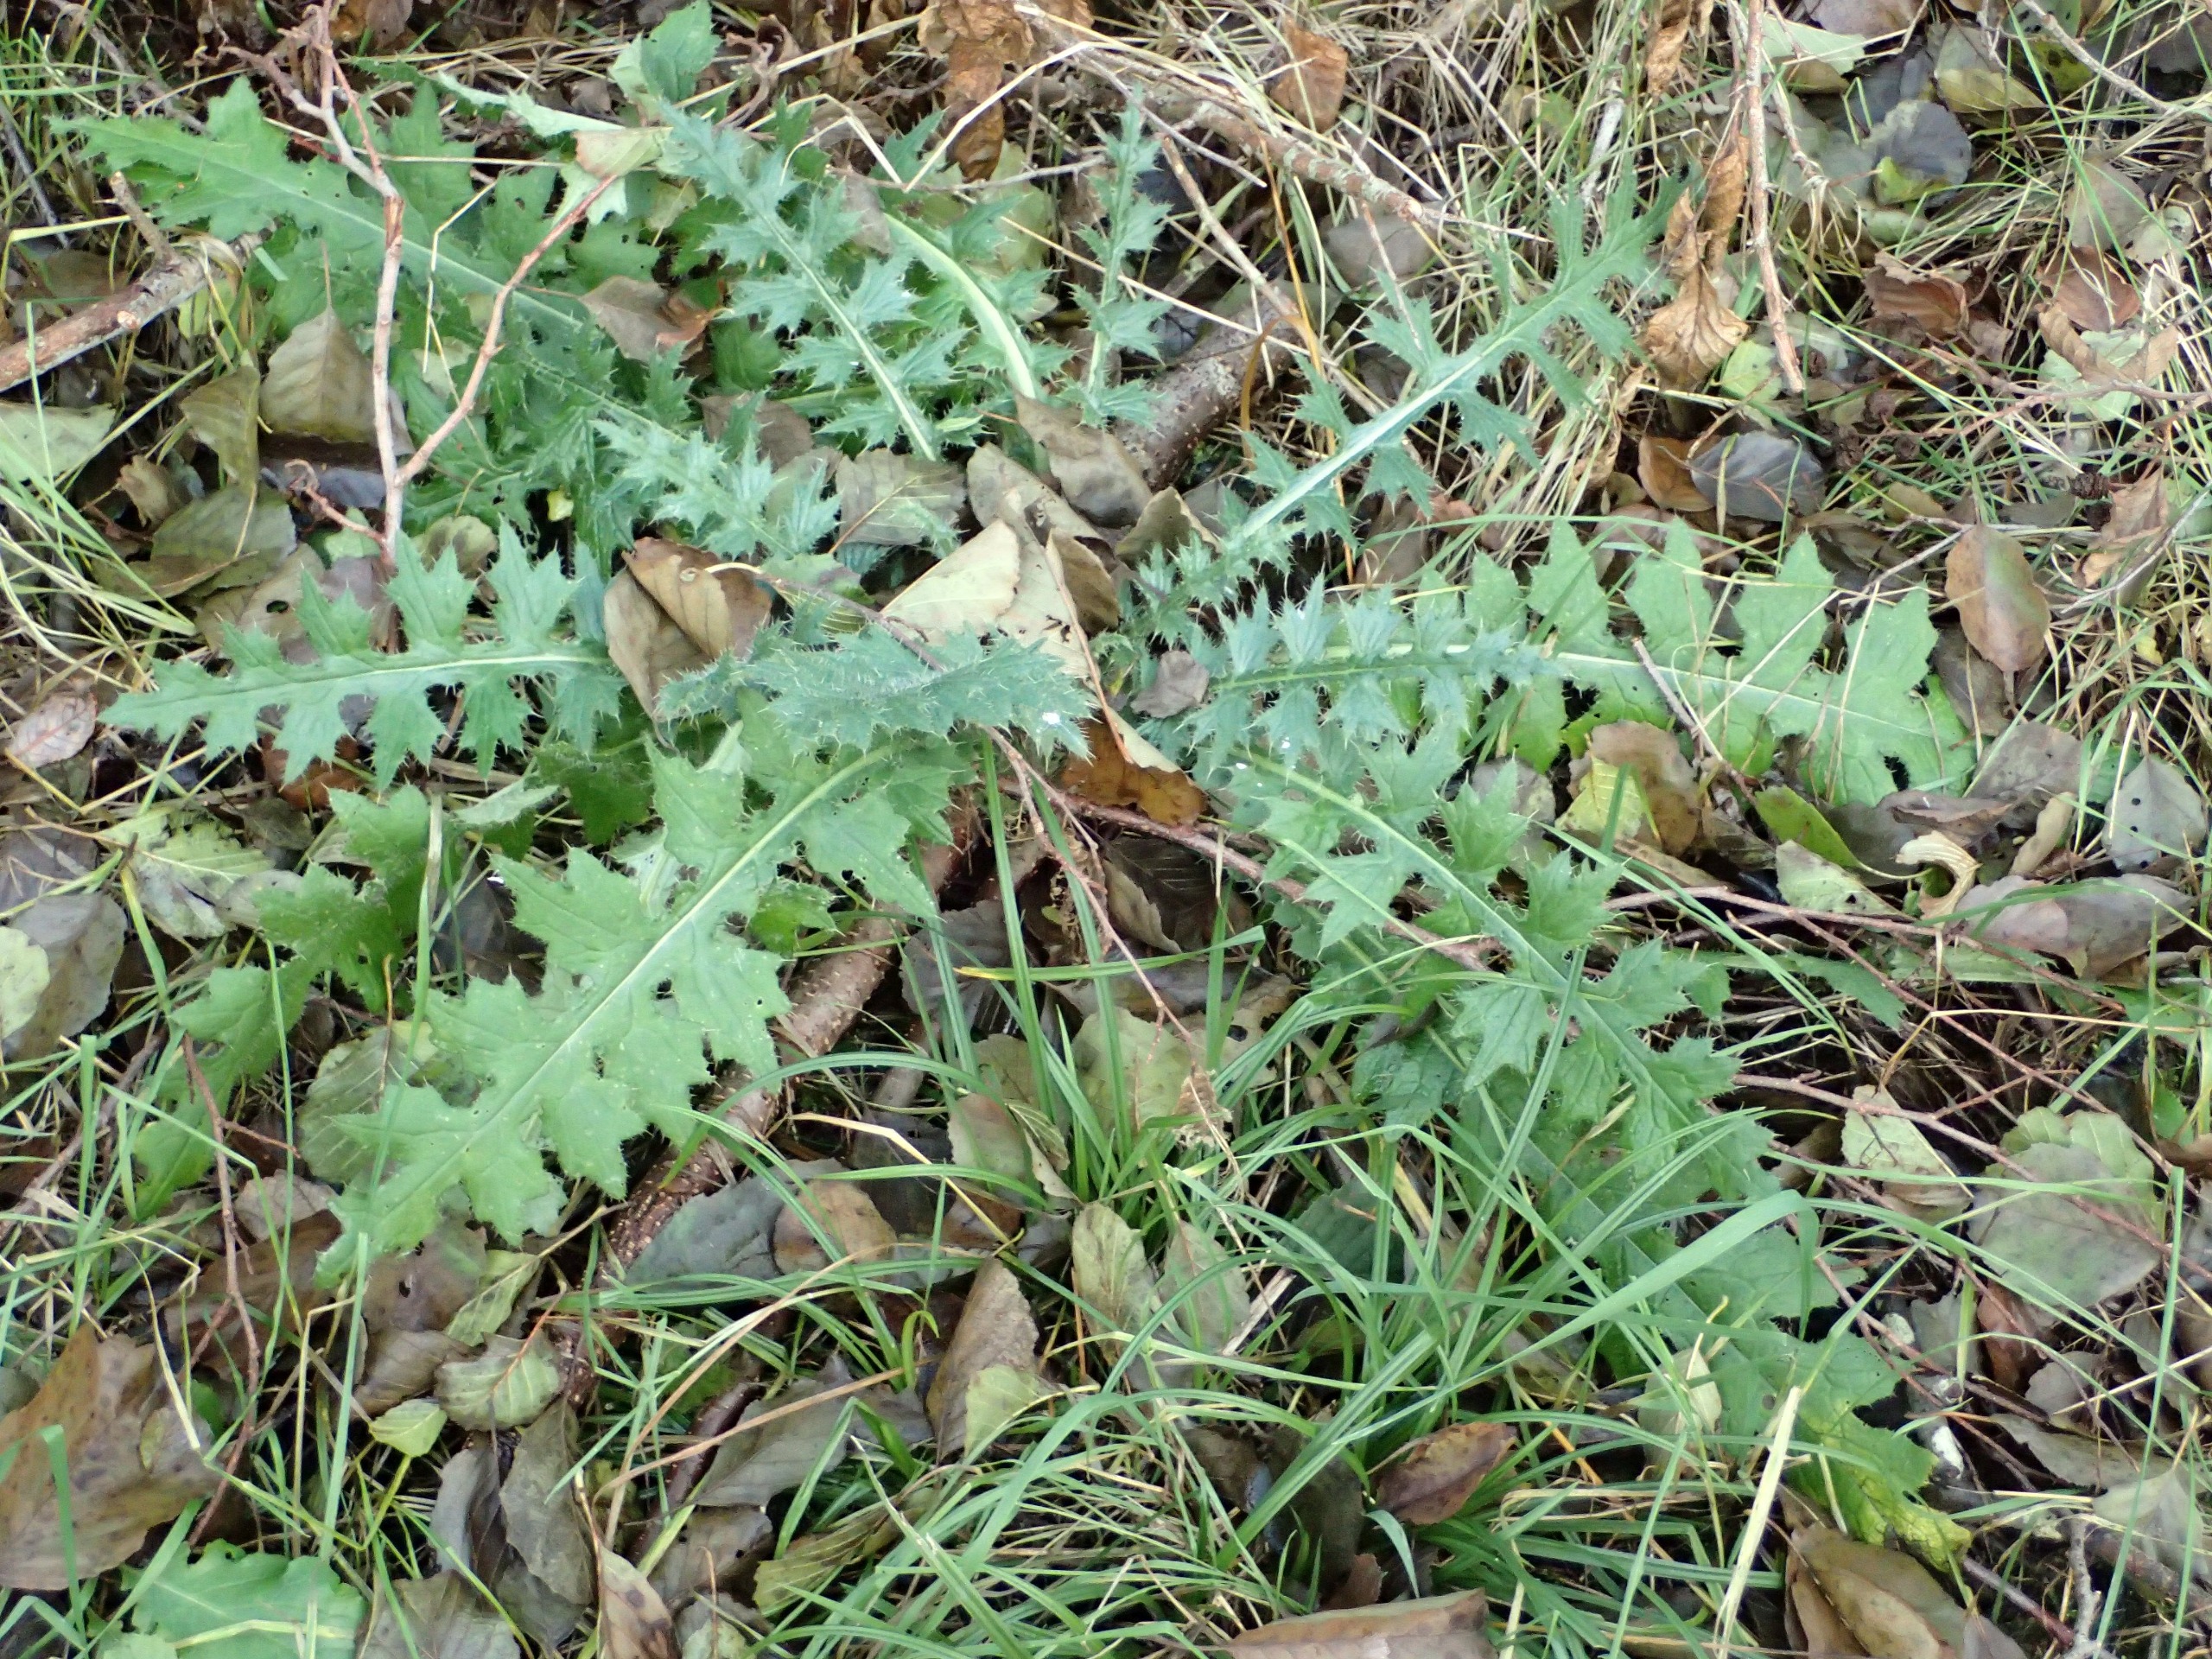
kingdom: Plantae
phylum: Tracheophyta
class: Magnoliopsida
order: Asterales
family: Asteraceae
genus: Cirsium
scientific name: Cirsium palustre
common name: Kær-tidsel
